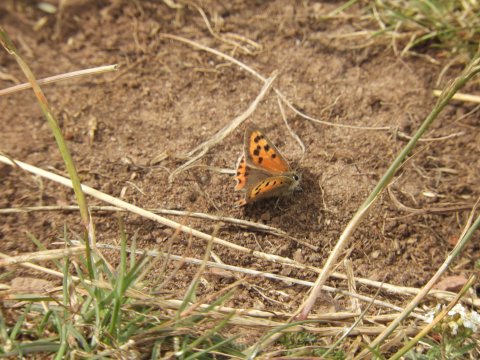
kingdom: Animalia
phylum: Arthropoda
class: Insecta
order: Lepidoptera
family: Lycaenidae
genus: Lycaena
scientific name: Lycaena phlaeas
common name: American Copper
